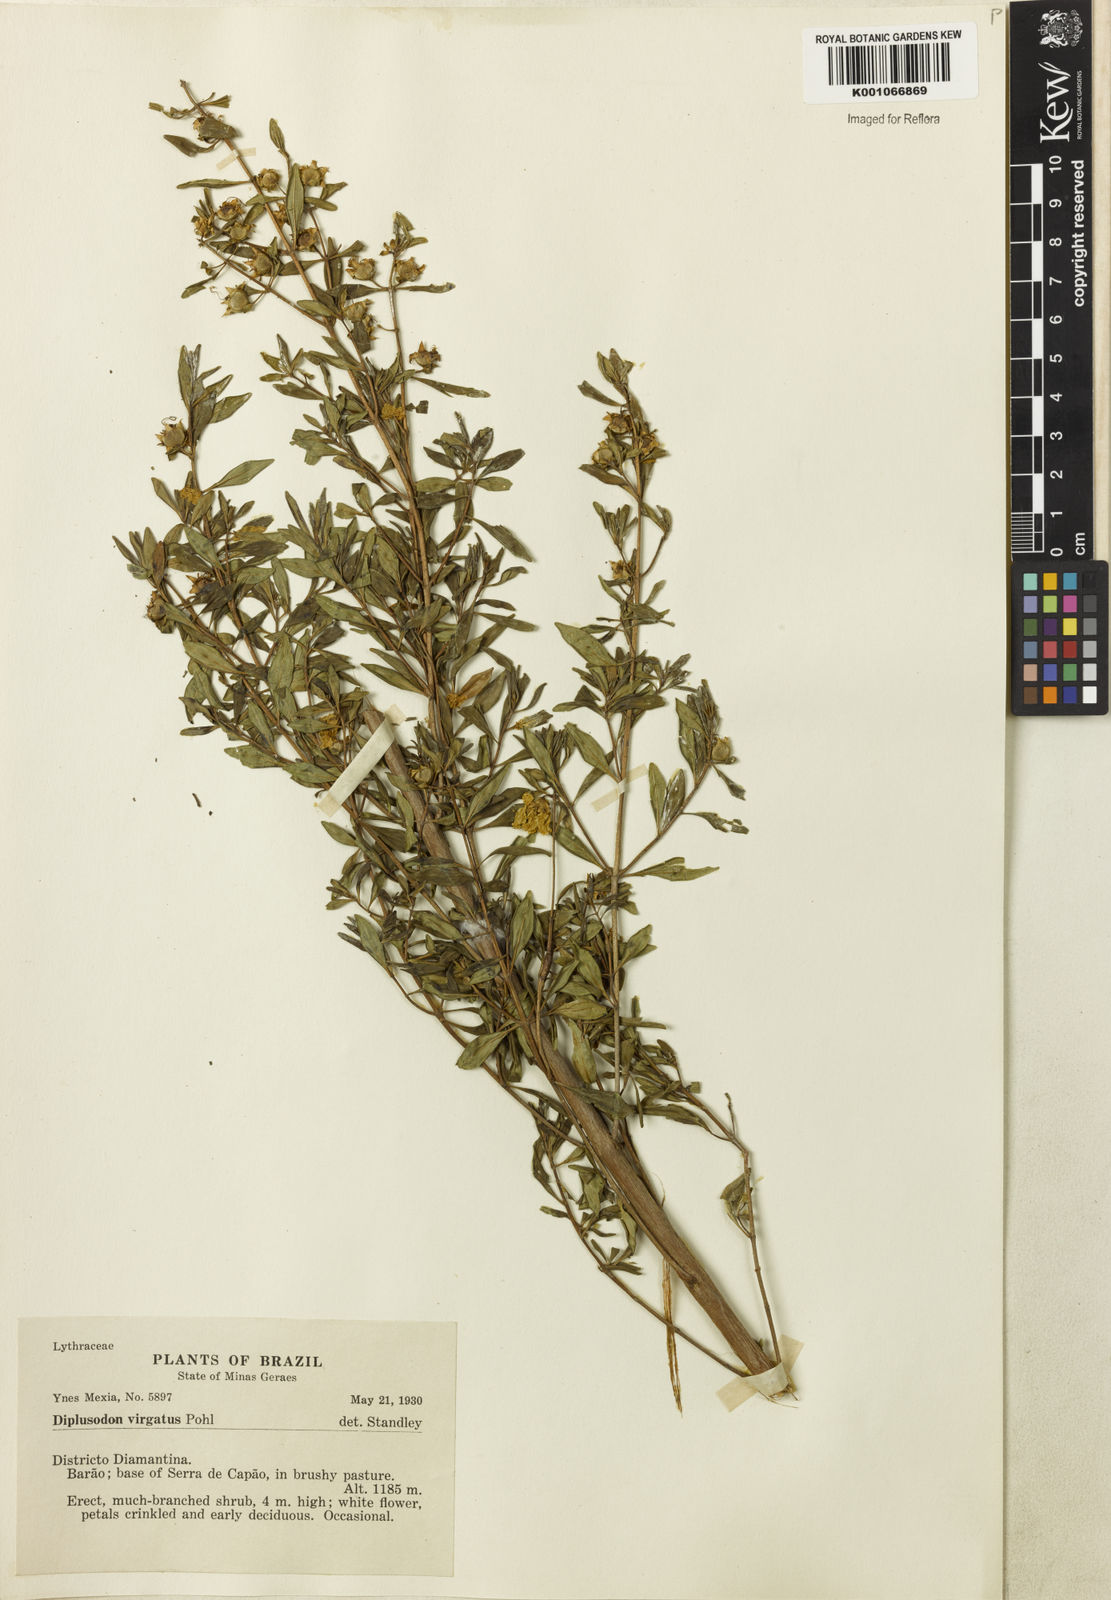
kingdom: Plantae
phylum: Tracheophyta
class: Magnoliopsida
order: Myrtales
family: Lythraceae
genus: Diplusodon
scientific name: Diplusodon virgatus
